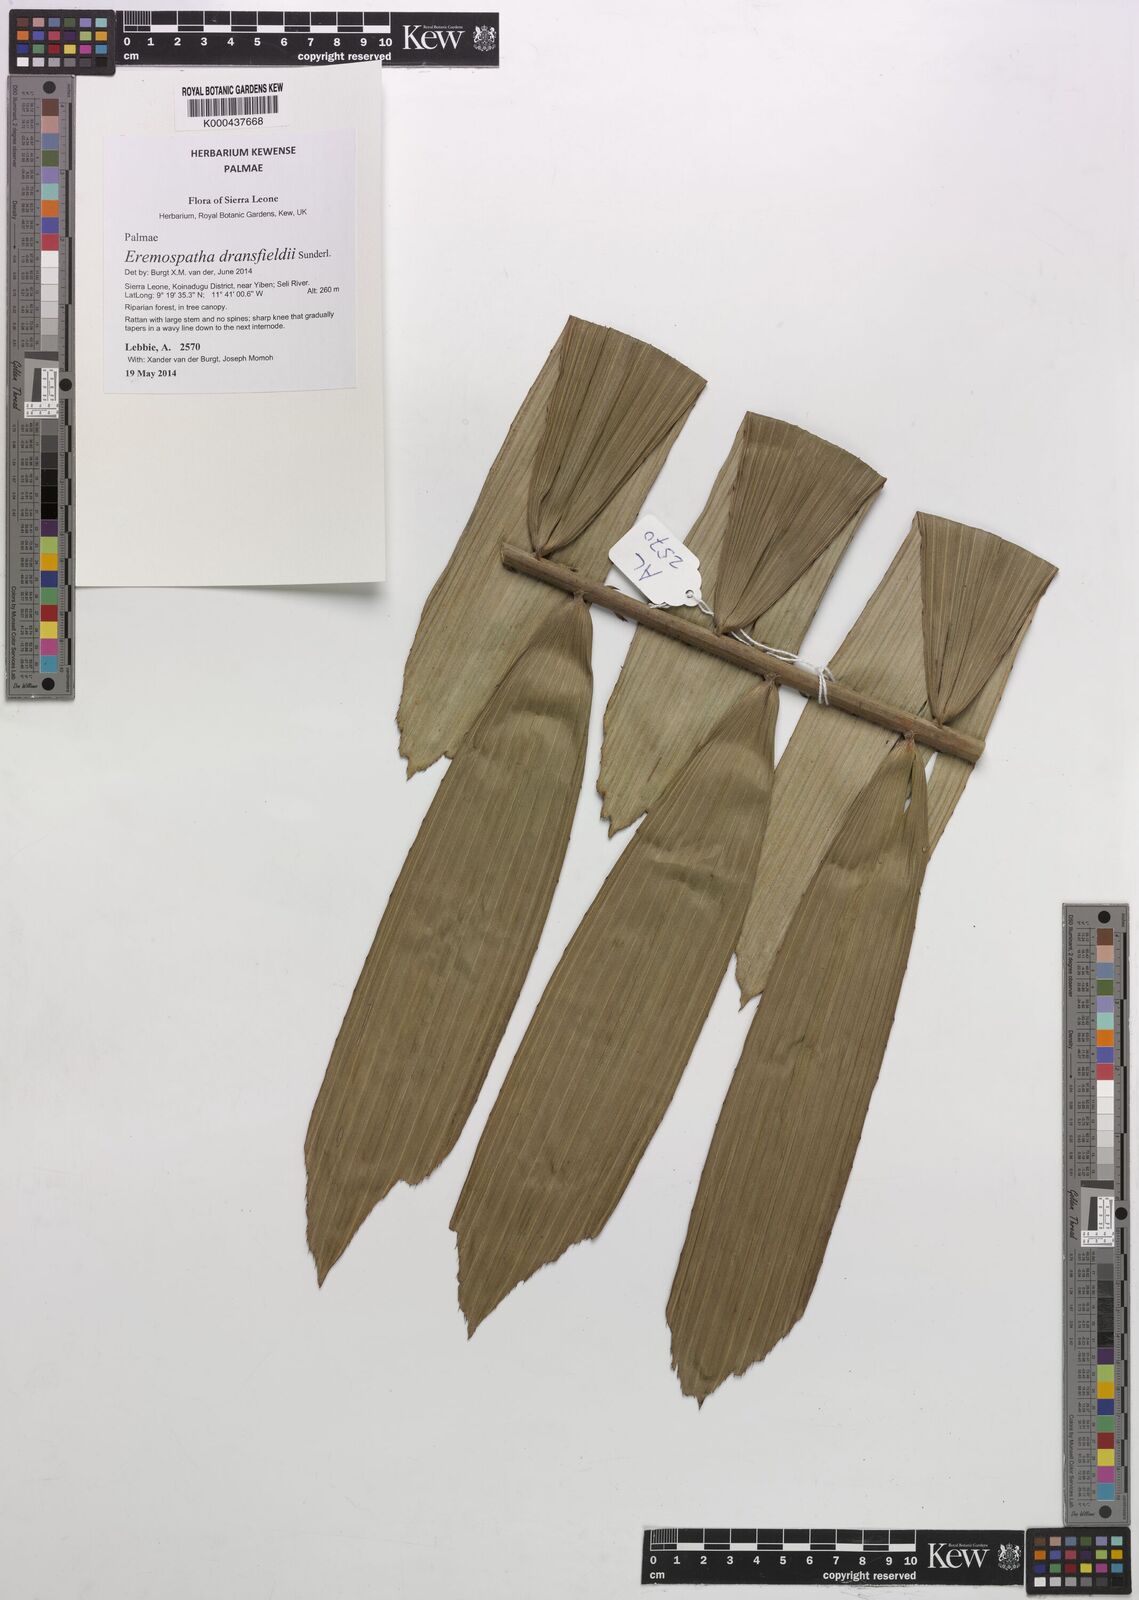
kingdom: Plantae
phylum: Tracheophyta
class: Magnoliopsida
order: Malvales
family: Malvaceae
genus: Microcos
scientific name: Microcos
